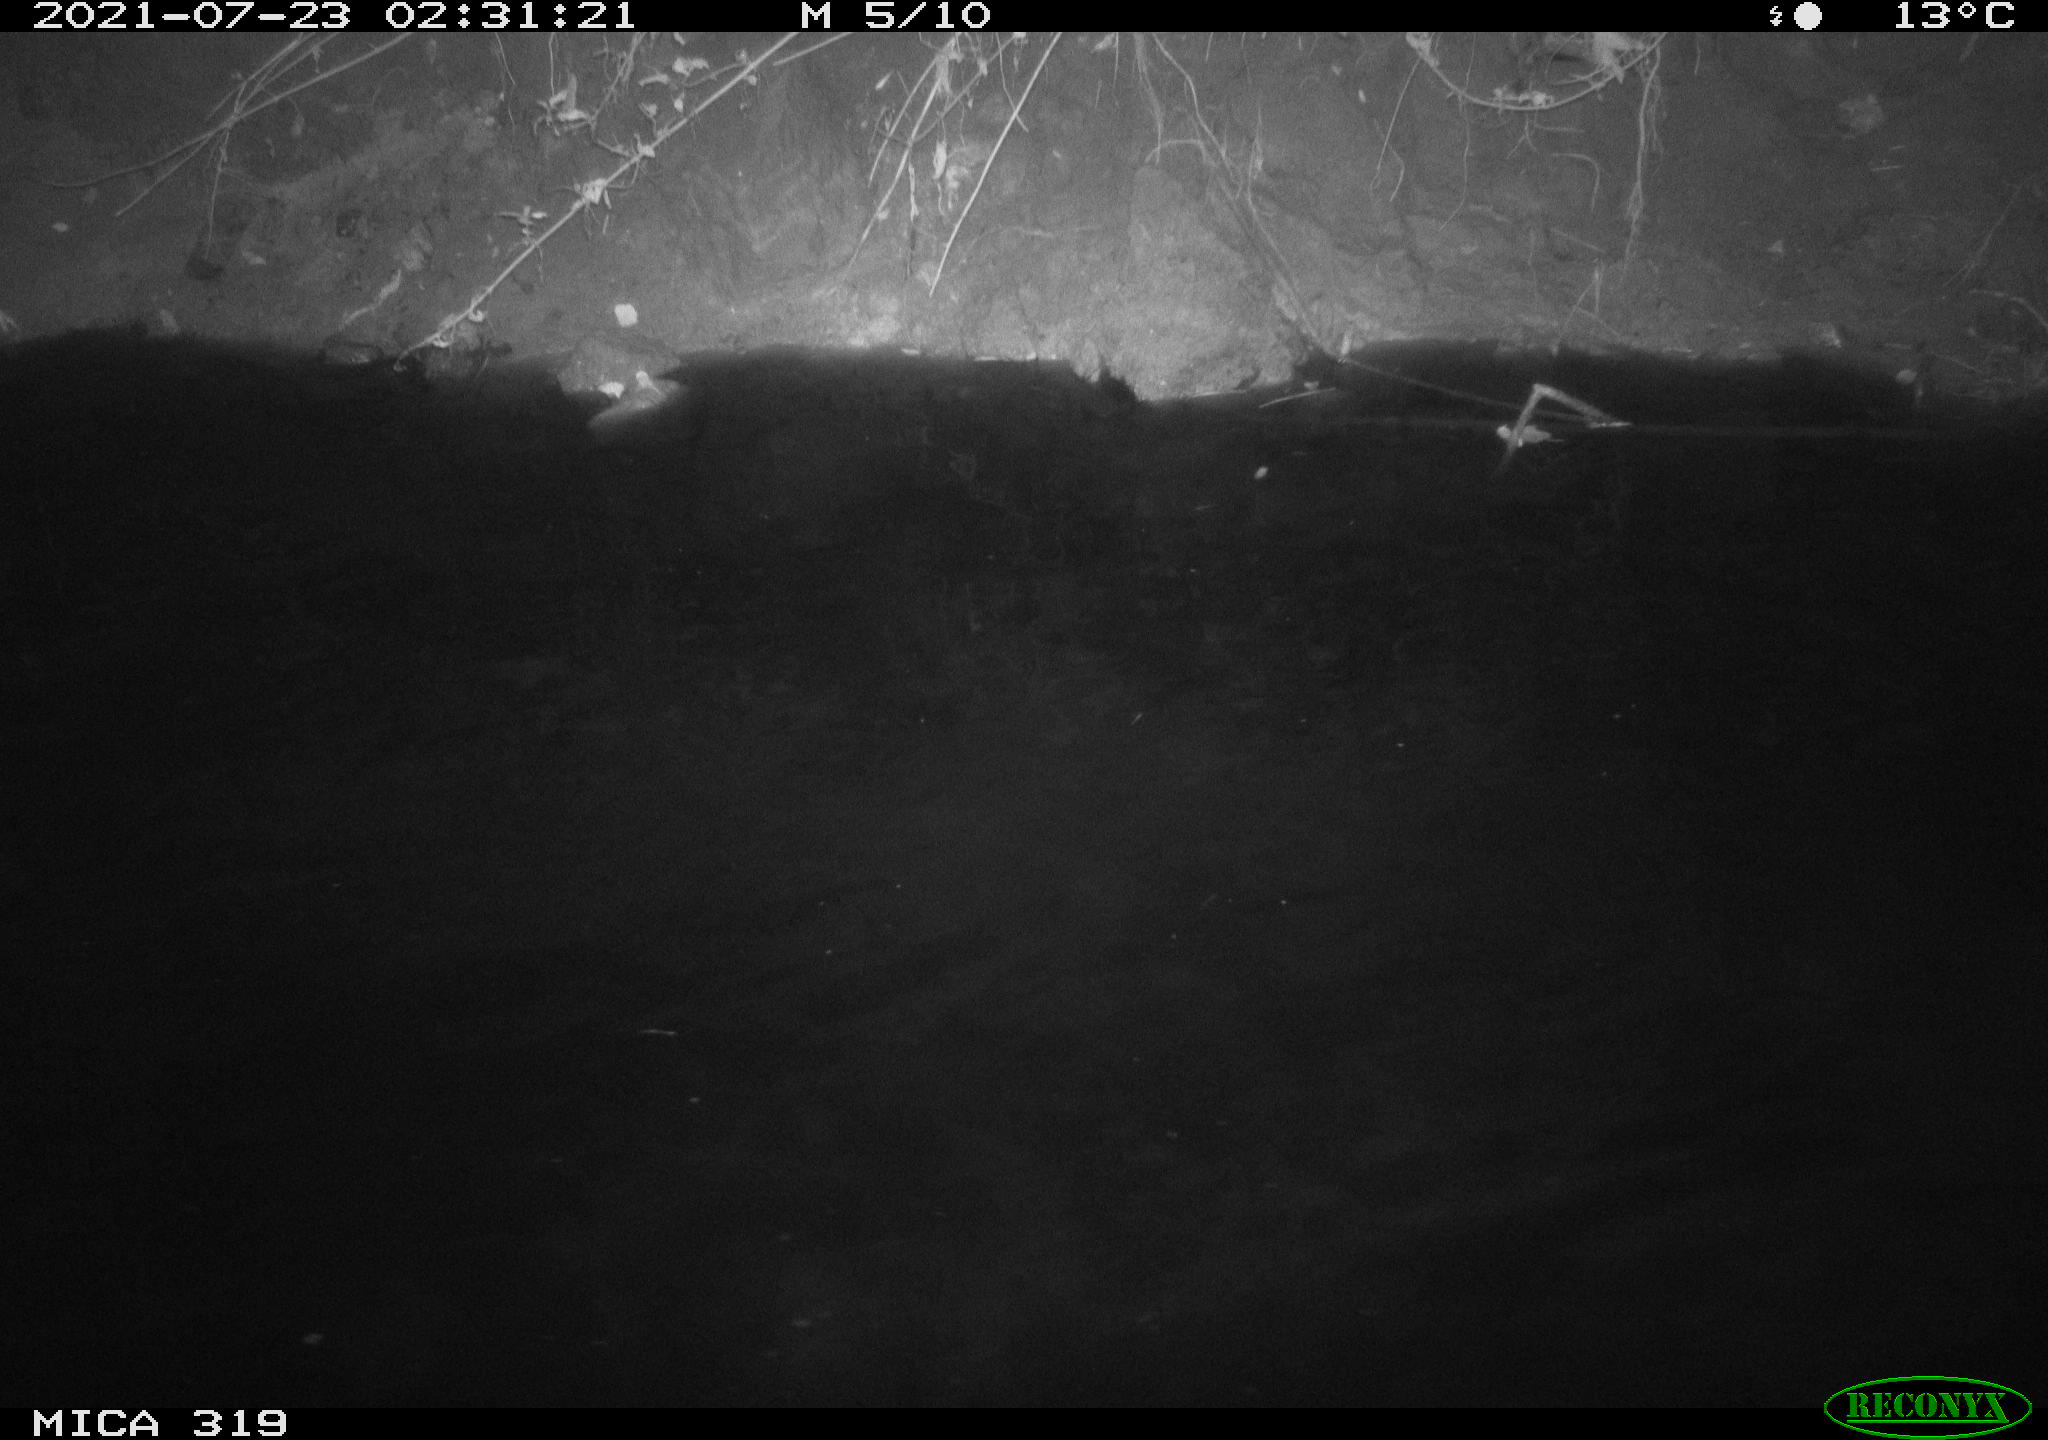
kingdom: Animalia
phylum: Chordata
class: Aves
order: Anseriformes
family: Anatidae
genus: Anas
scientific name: Anas platyrhynchos
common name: Mallard
